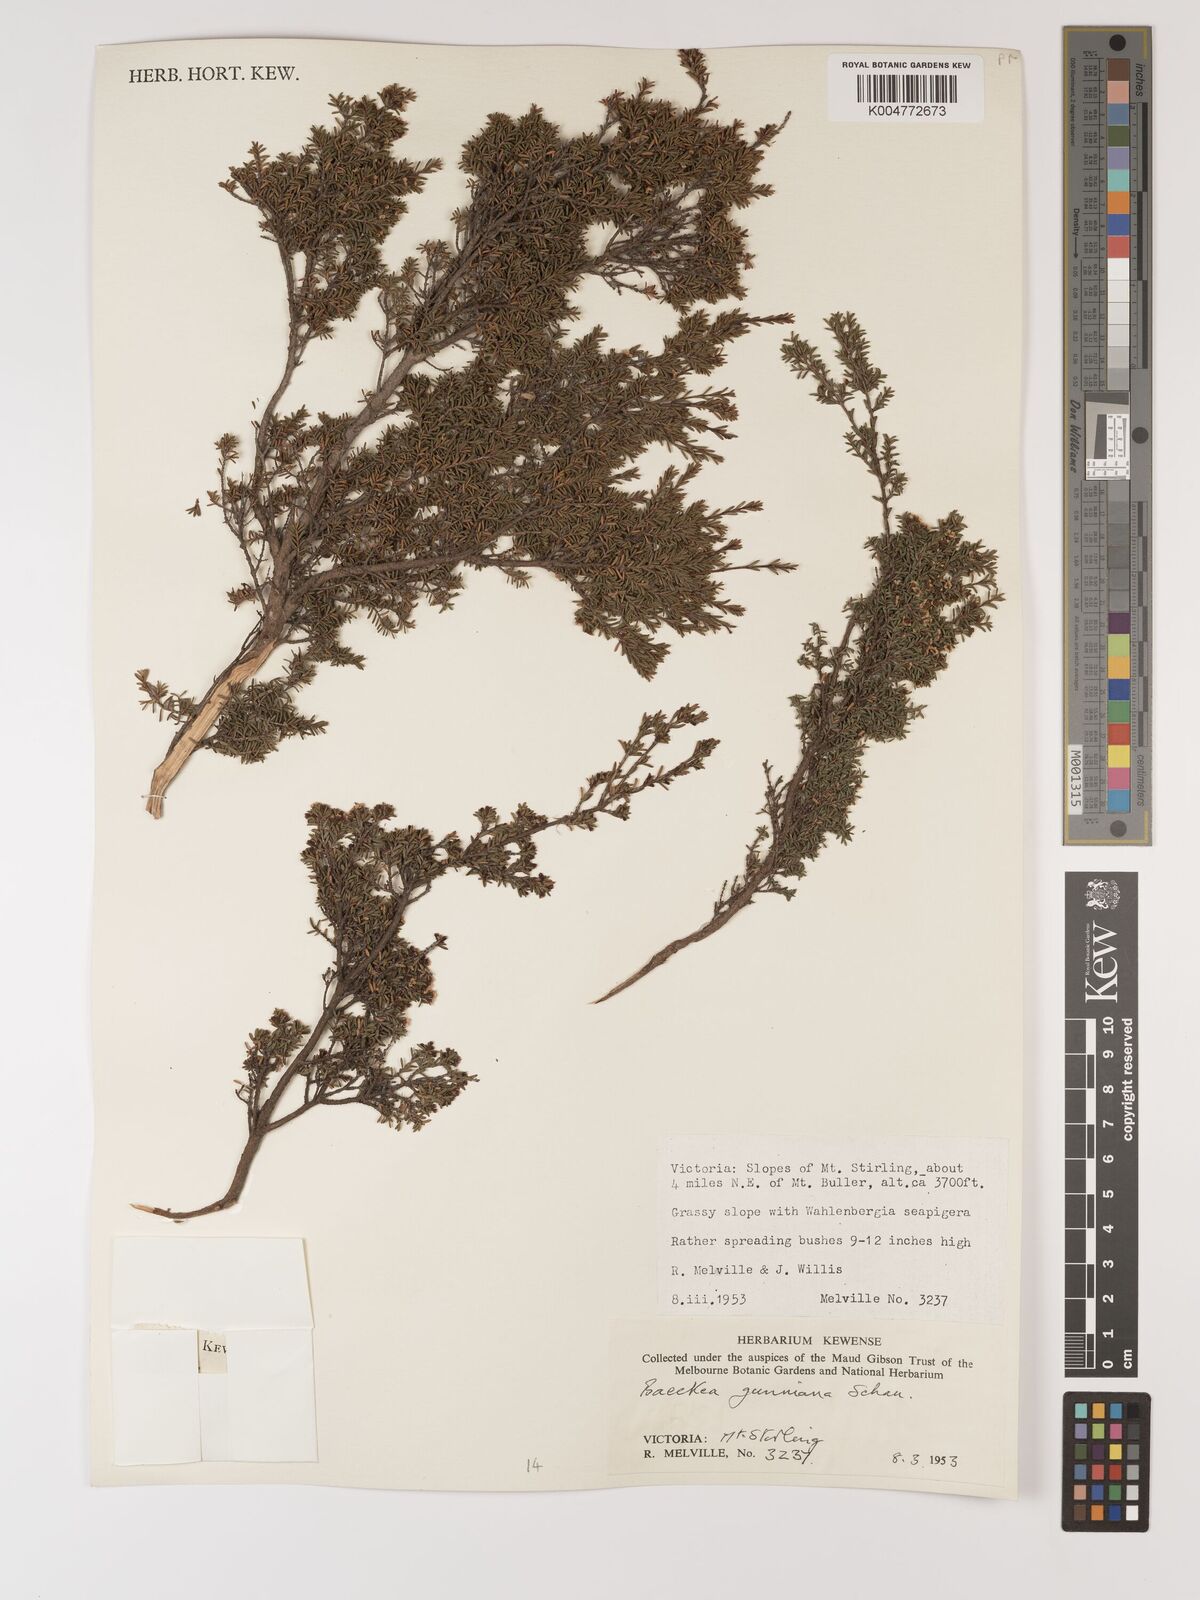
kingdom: Plantae
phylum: Tracheophyta
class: Magnoliopsida
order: Myrtales
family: Myrtaceae
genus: Baeckea
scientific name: Baeckea gunniana
